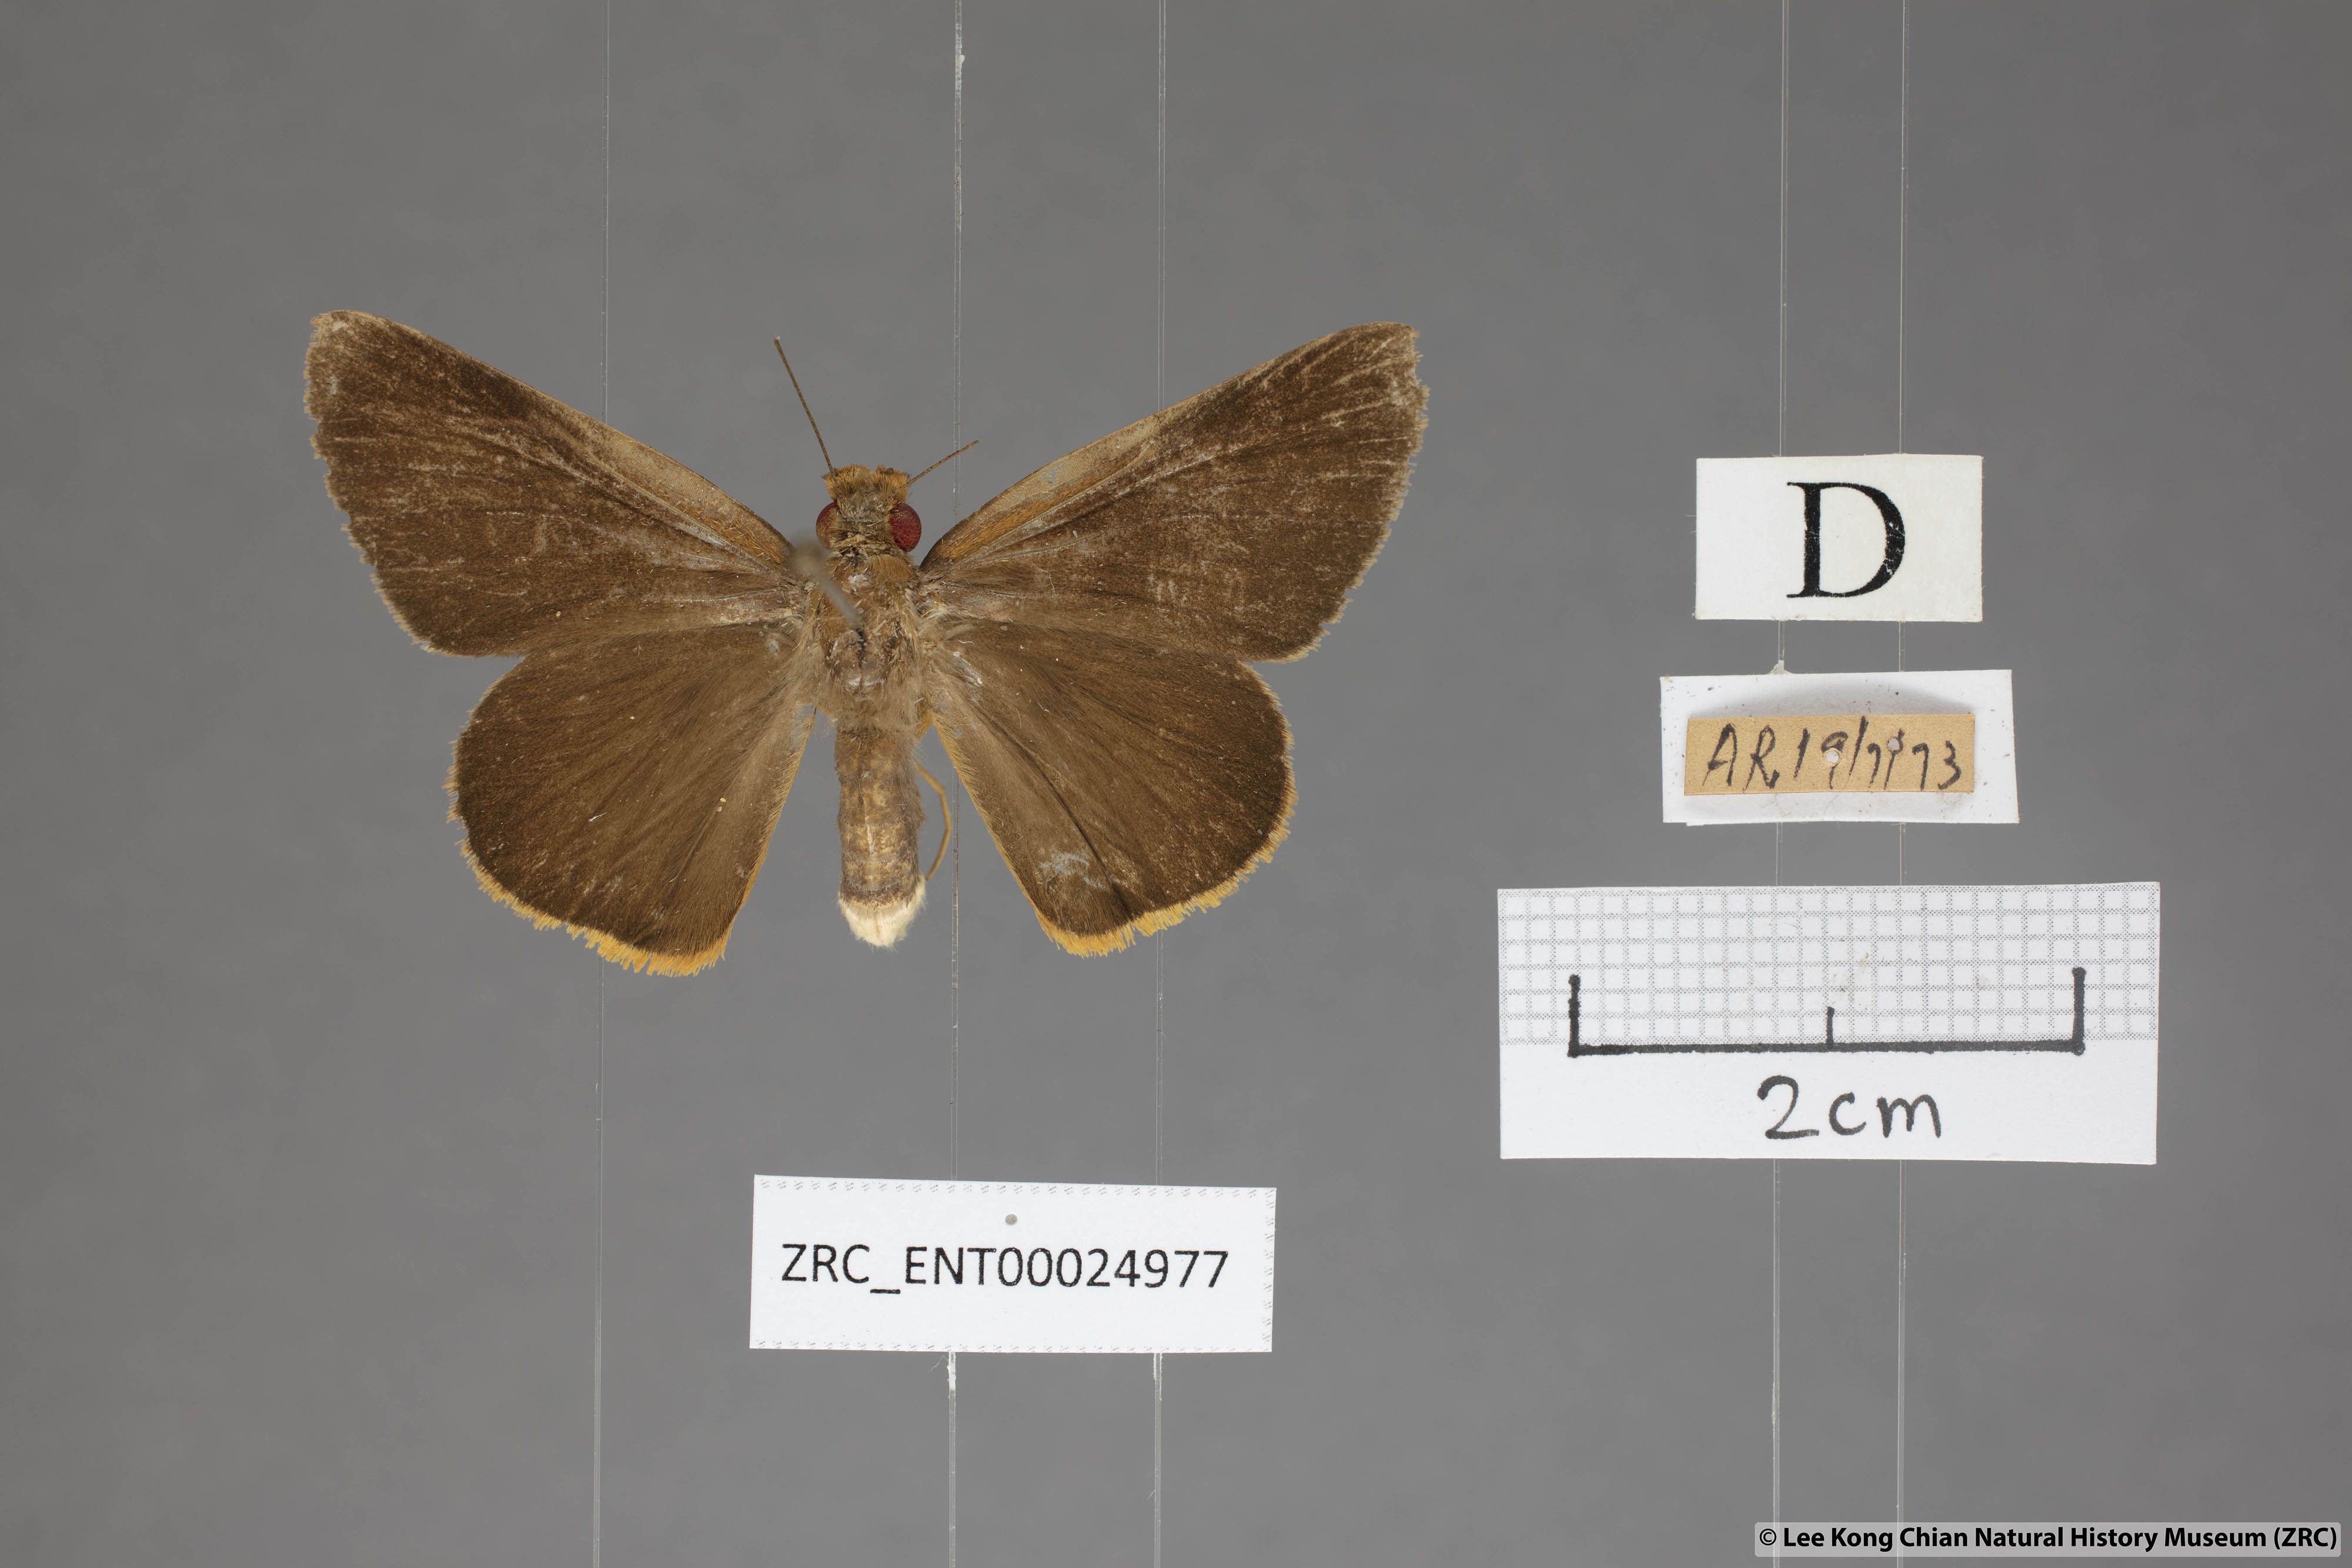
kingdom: Animalia
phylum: Arthropoda
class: Insecta
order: Lepidoptera
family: Hesperiidae
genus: Matapa
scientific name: Matapa druna
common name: Grey-brand redeye
